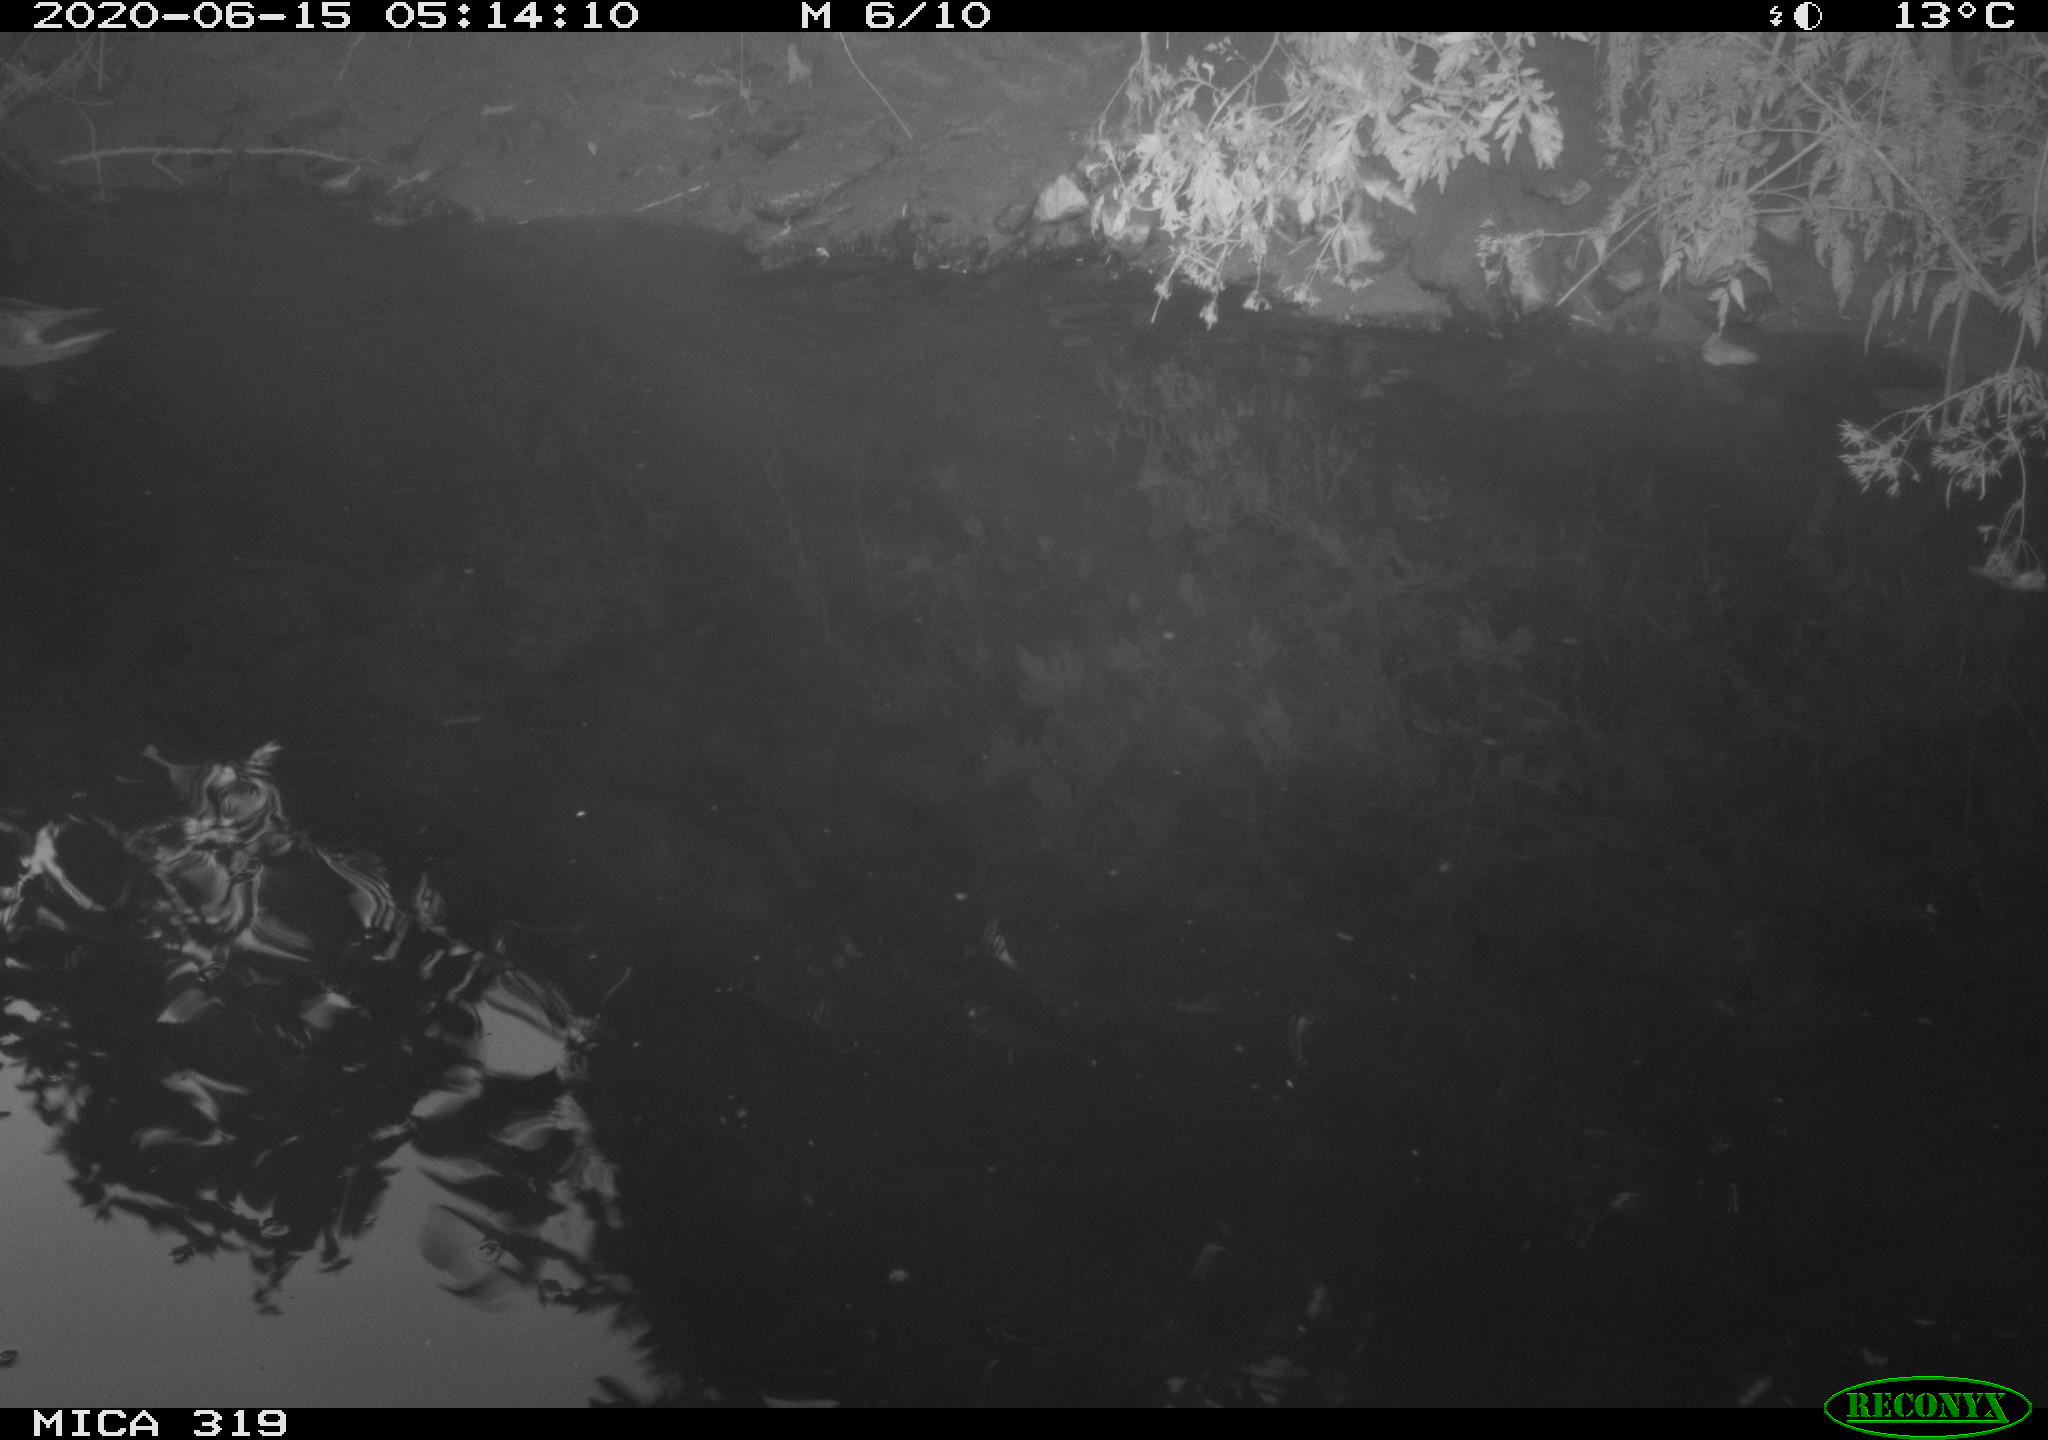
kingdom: Animalia
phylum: Chordata
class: Aves
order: Anseriformes
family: Anatidae
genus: Anas
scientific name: Anas platyrhynchos
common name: Mallard
